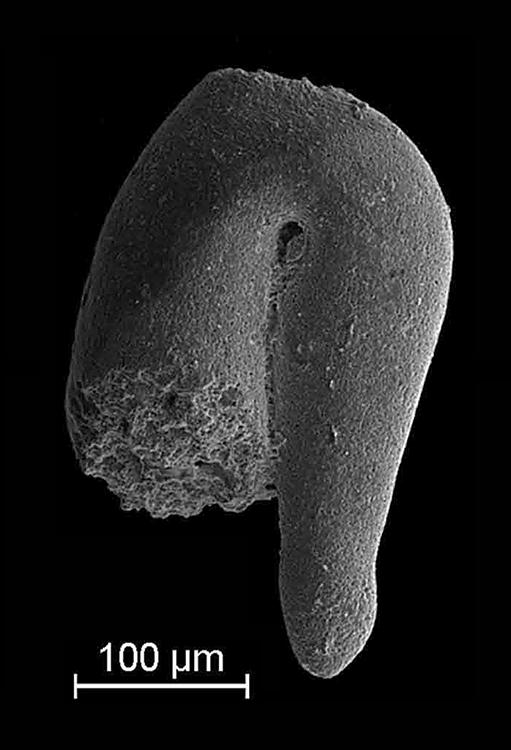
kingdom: Animalia
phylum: Mollusca
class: Rostroconchia
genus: Jinonicella
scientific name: Jinonicella kolebabai
